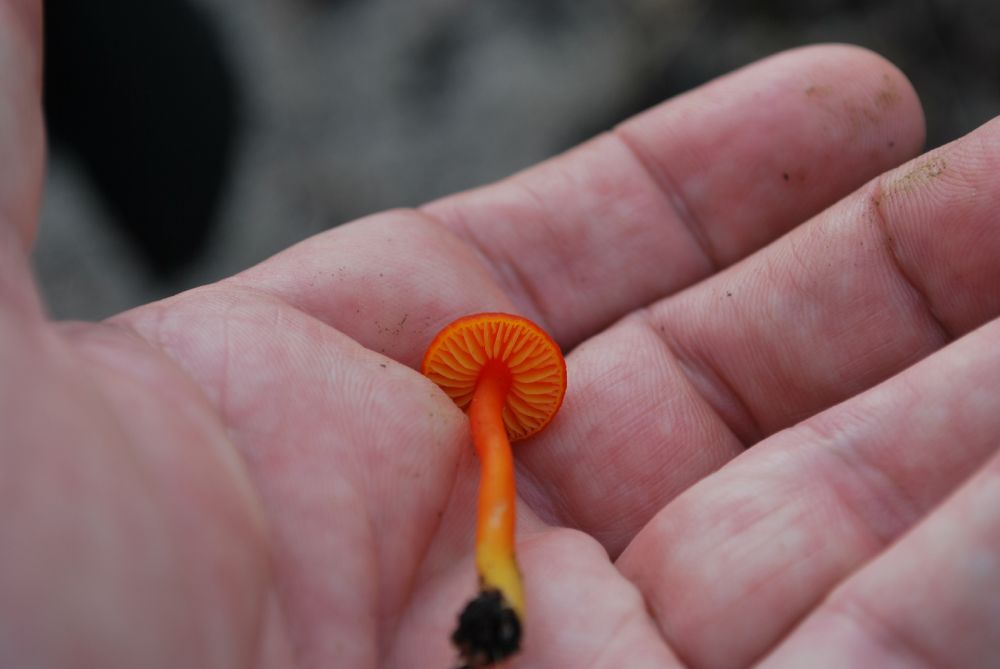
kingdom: Fungi
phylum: Basidiomycota
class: Agaricomycetes
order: Agaricales
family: Hygrophoraceae
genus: Hygrocybe
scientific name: Hygrocybe miniata
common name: mønje-vokshat
